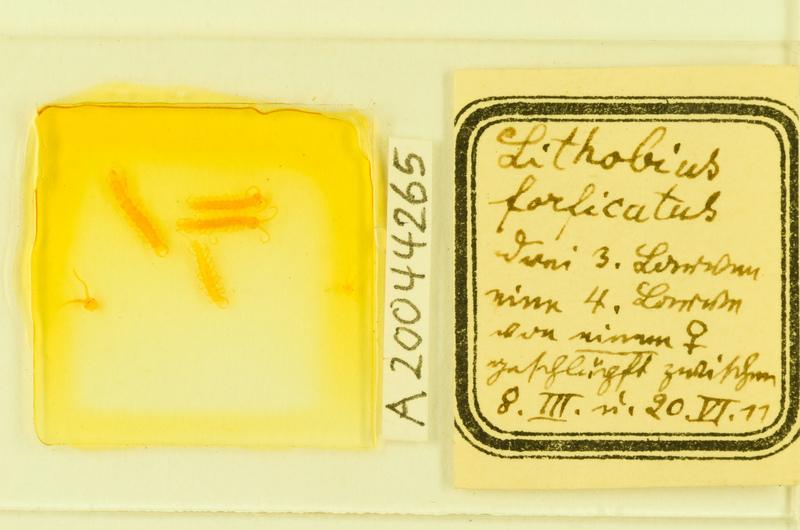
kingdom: Animalia
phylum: Arthropoda
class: Chilopoda
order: Lithobiomorpha
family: Lithobiidae
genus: Lithobius
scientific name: Lithobius forficatus
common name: Centipede
